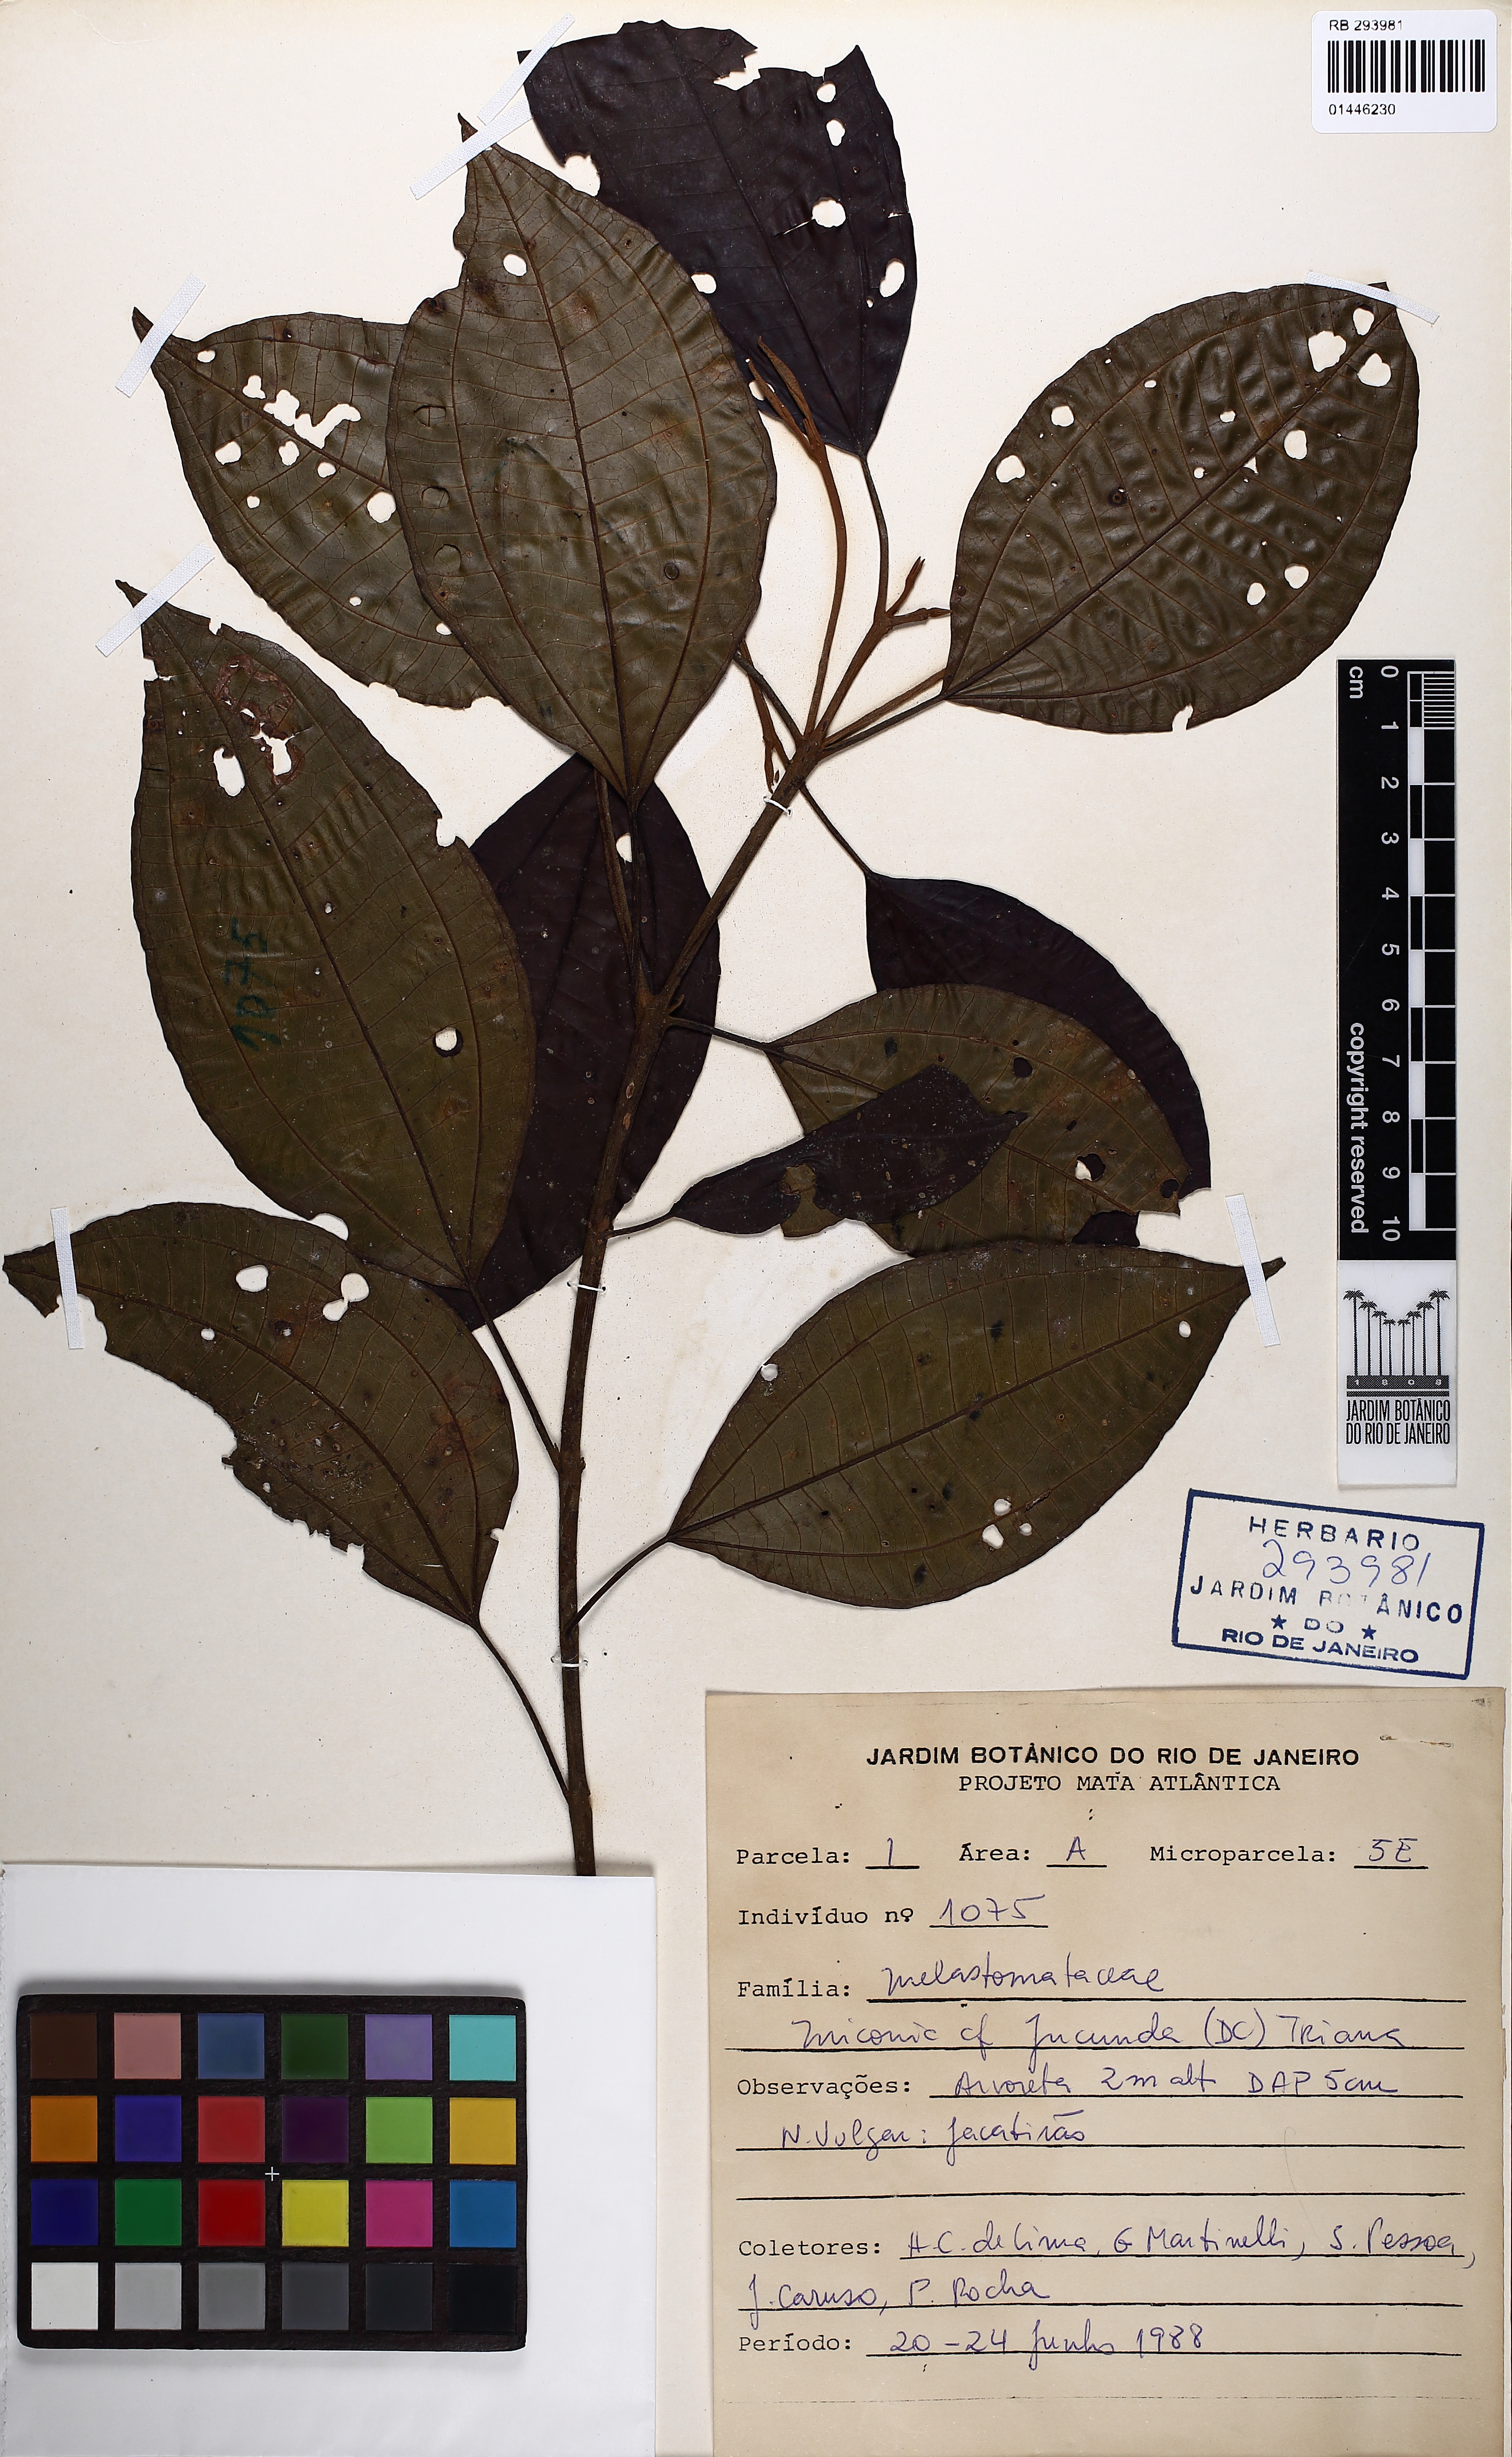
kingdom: Plantae
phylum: Tracheophyta
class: Magnoliopsida
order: Myrtales
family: Melastomataceae
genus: Miconia
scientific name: Miconia jucunda
